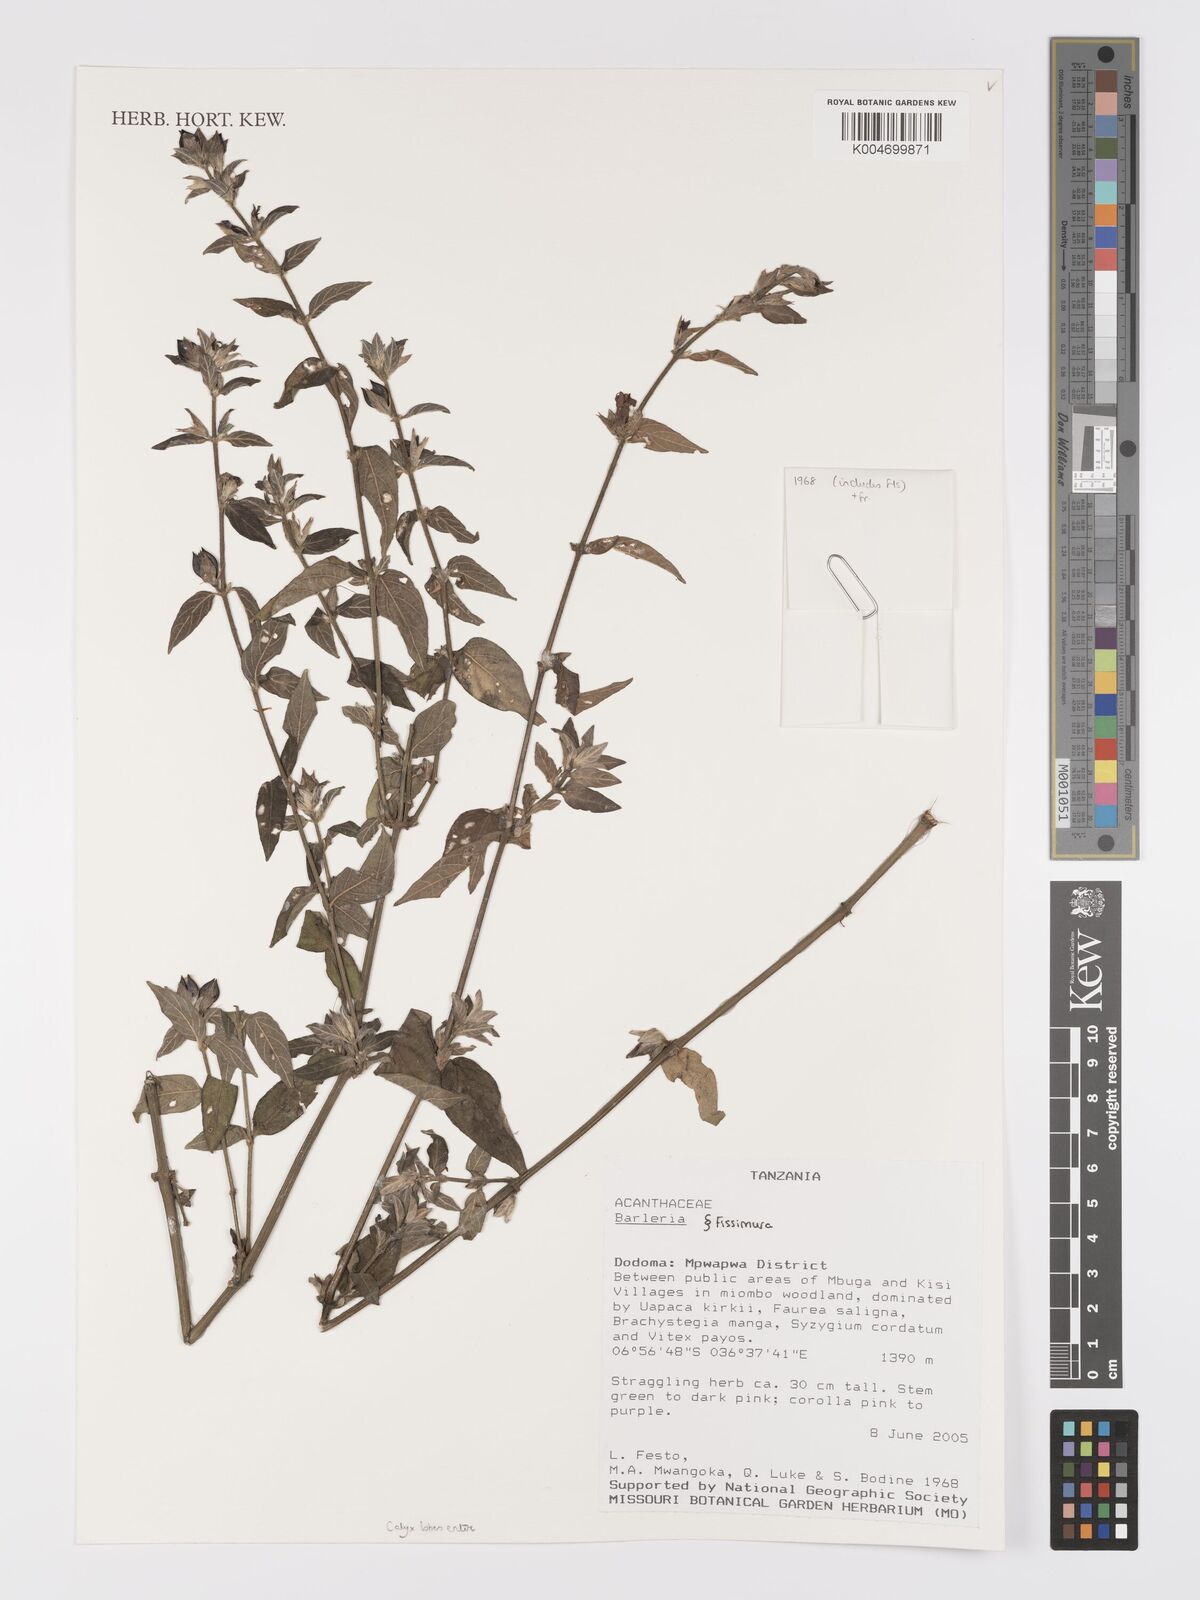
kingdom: Plantae
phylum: Tracheophyta
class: Magnoliopsida
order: Lamiales
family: Acanthaceae
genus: Barleria
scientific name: Barleria ventricosa
